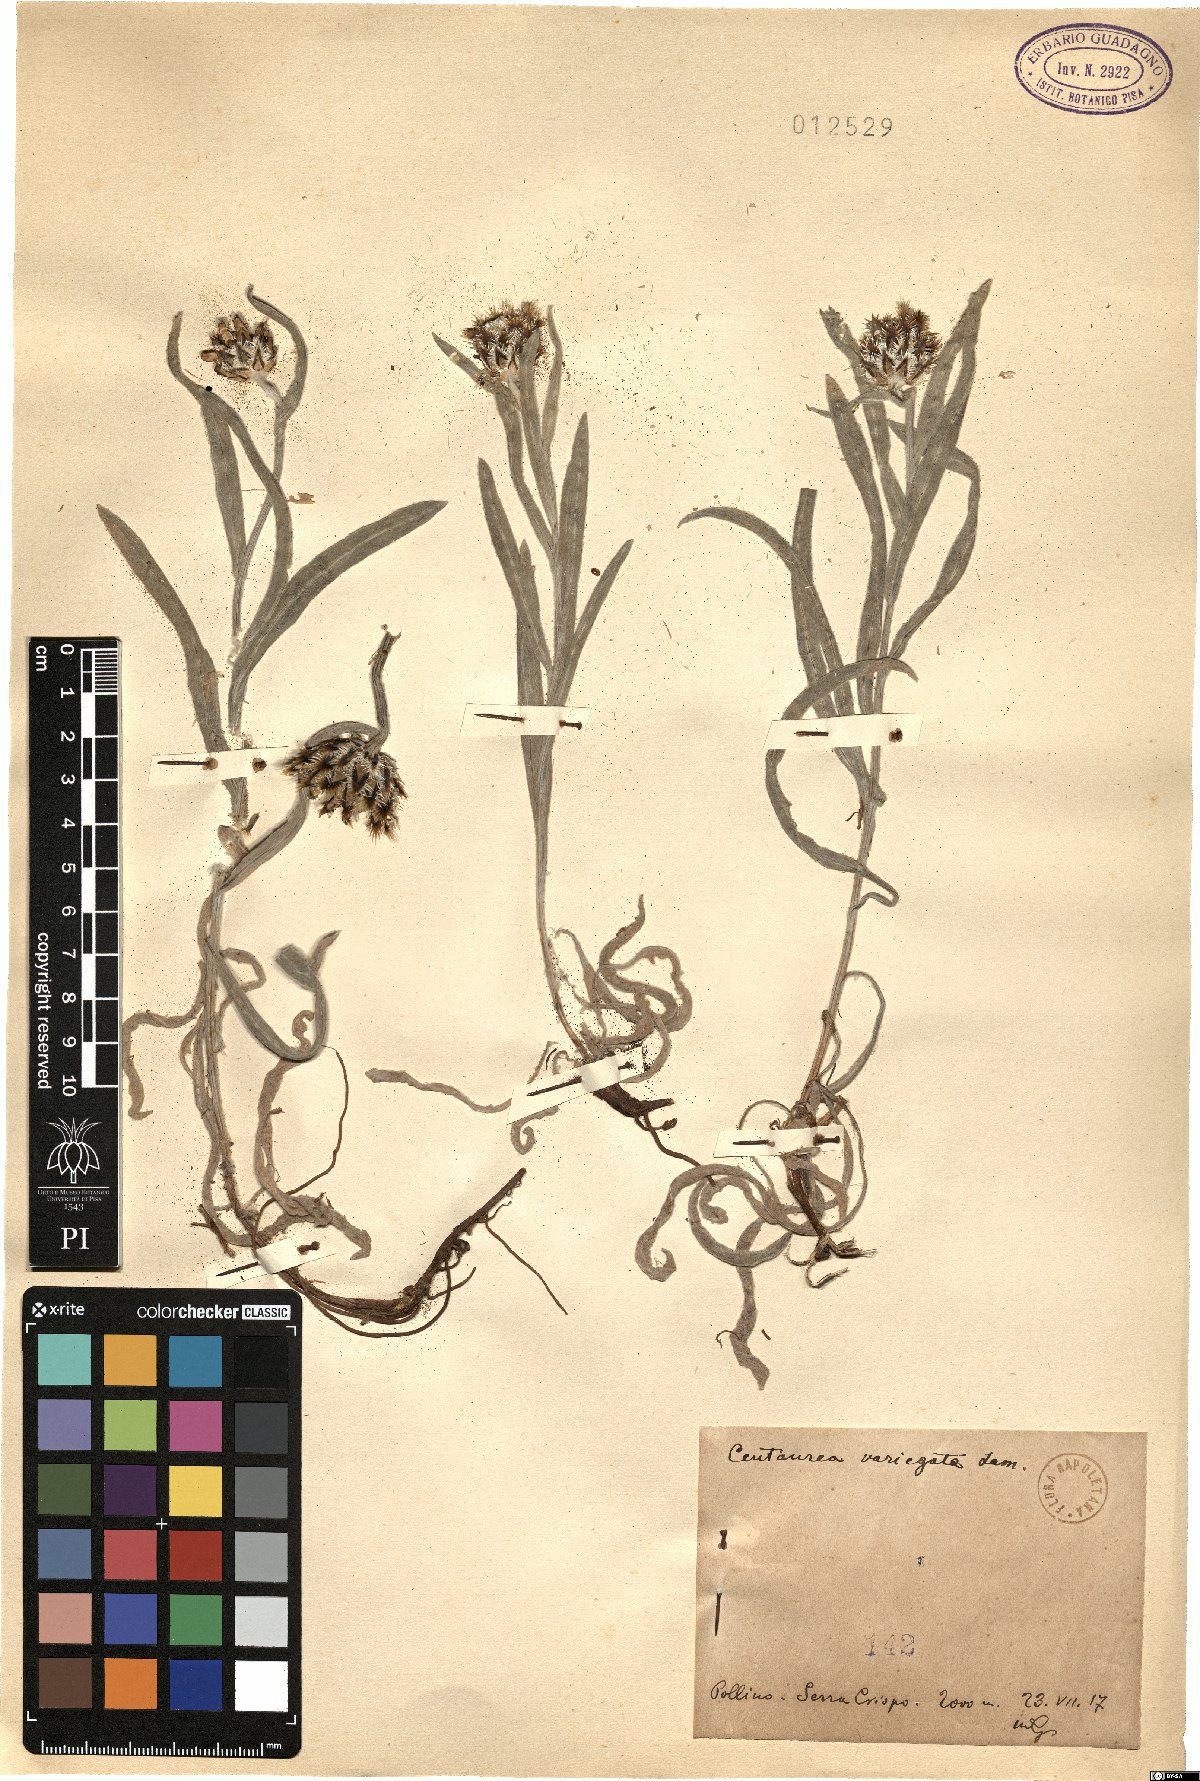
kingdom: Plantae
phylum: Tracheophyta
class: Magnoliopsida
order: Asterales
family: Asteraceae
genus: Centaurea
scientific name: Centaurea graminifolia
